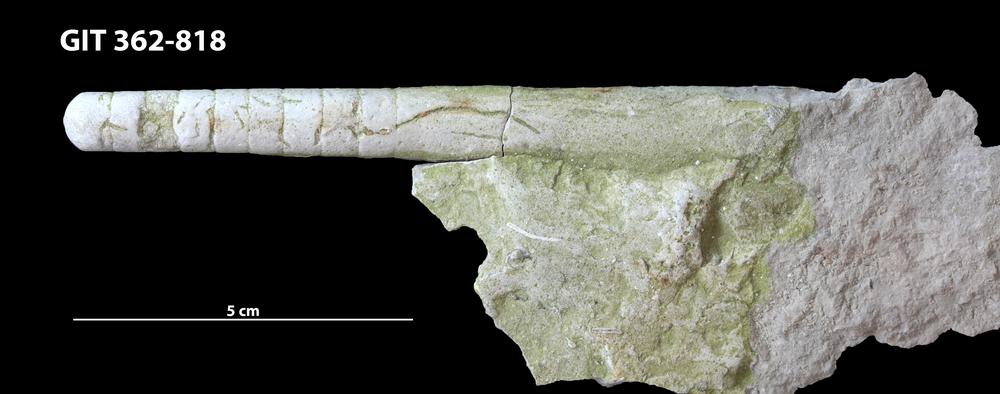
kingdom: Animalia
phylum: Mollusca
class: Cephalopoda
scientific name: Cephalopoda
